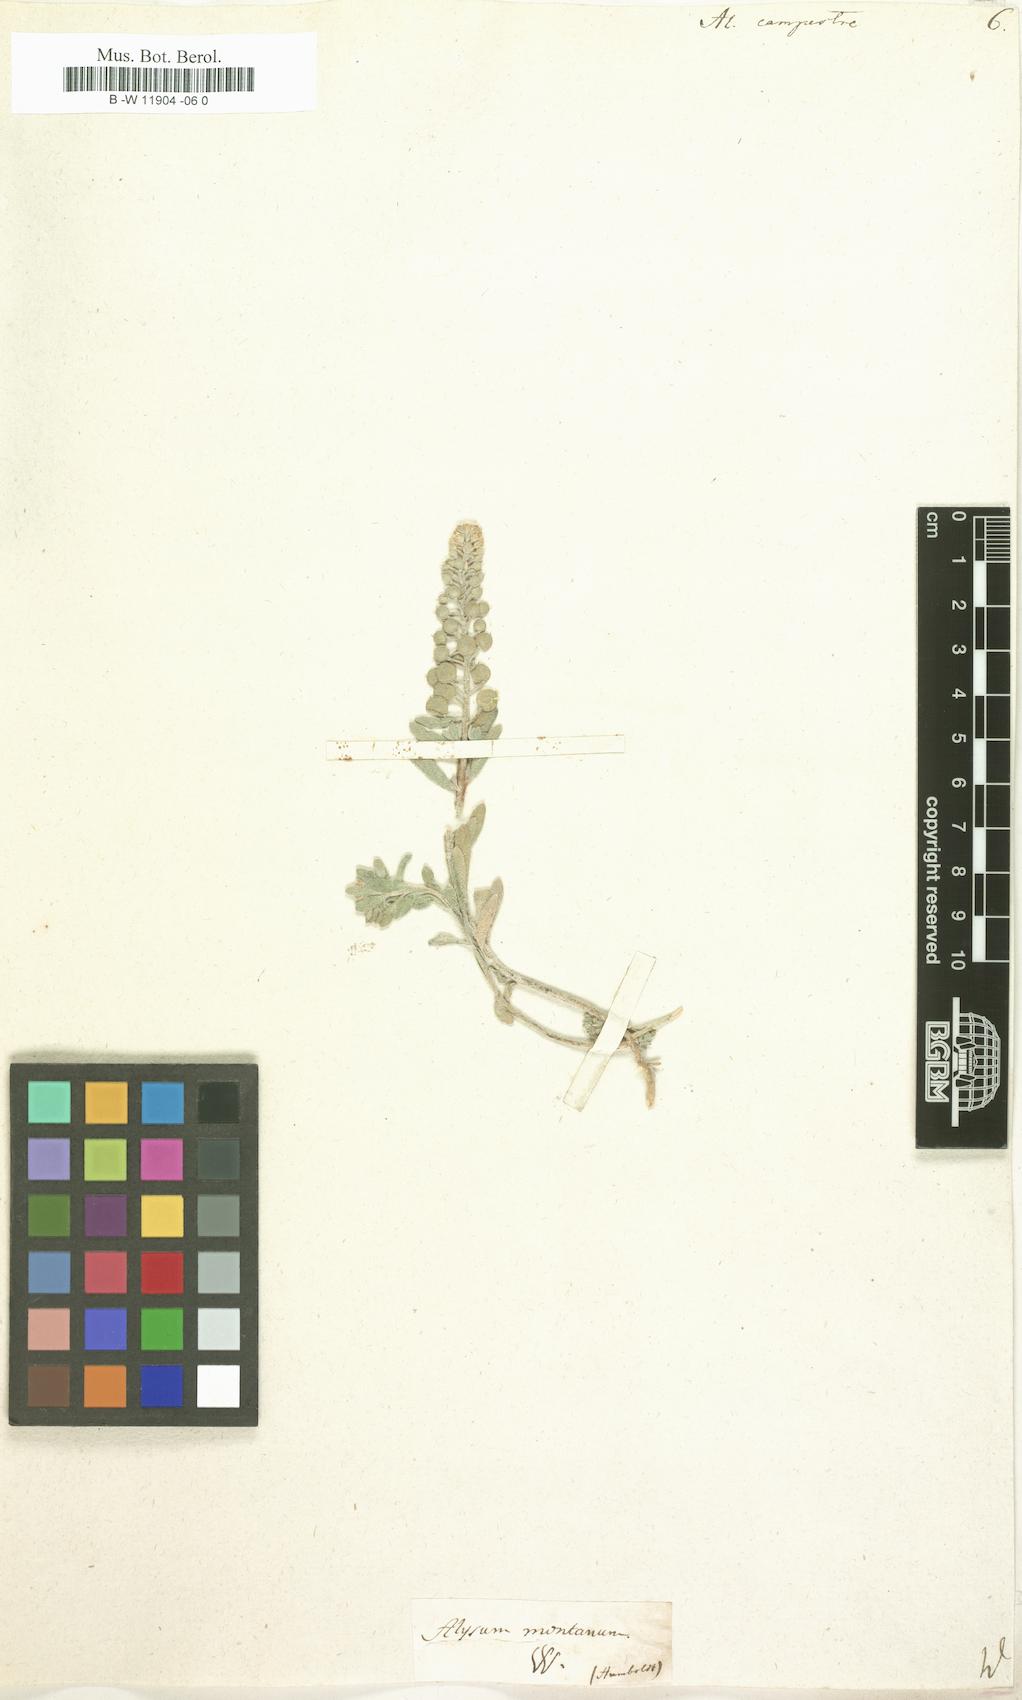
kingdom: Plantae
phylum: Tracheophyta
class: Magnoliopsida
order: Brassicales
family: Brassicaceae
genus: Alyssum
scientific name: Alyssum alyssoides
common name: Small alison
